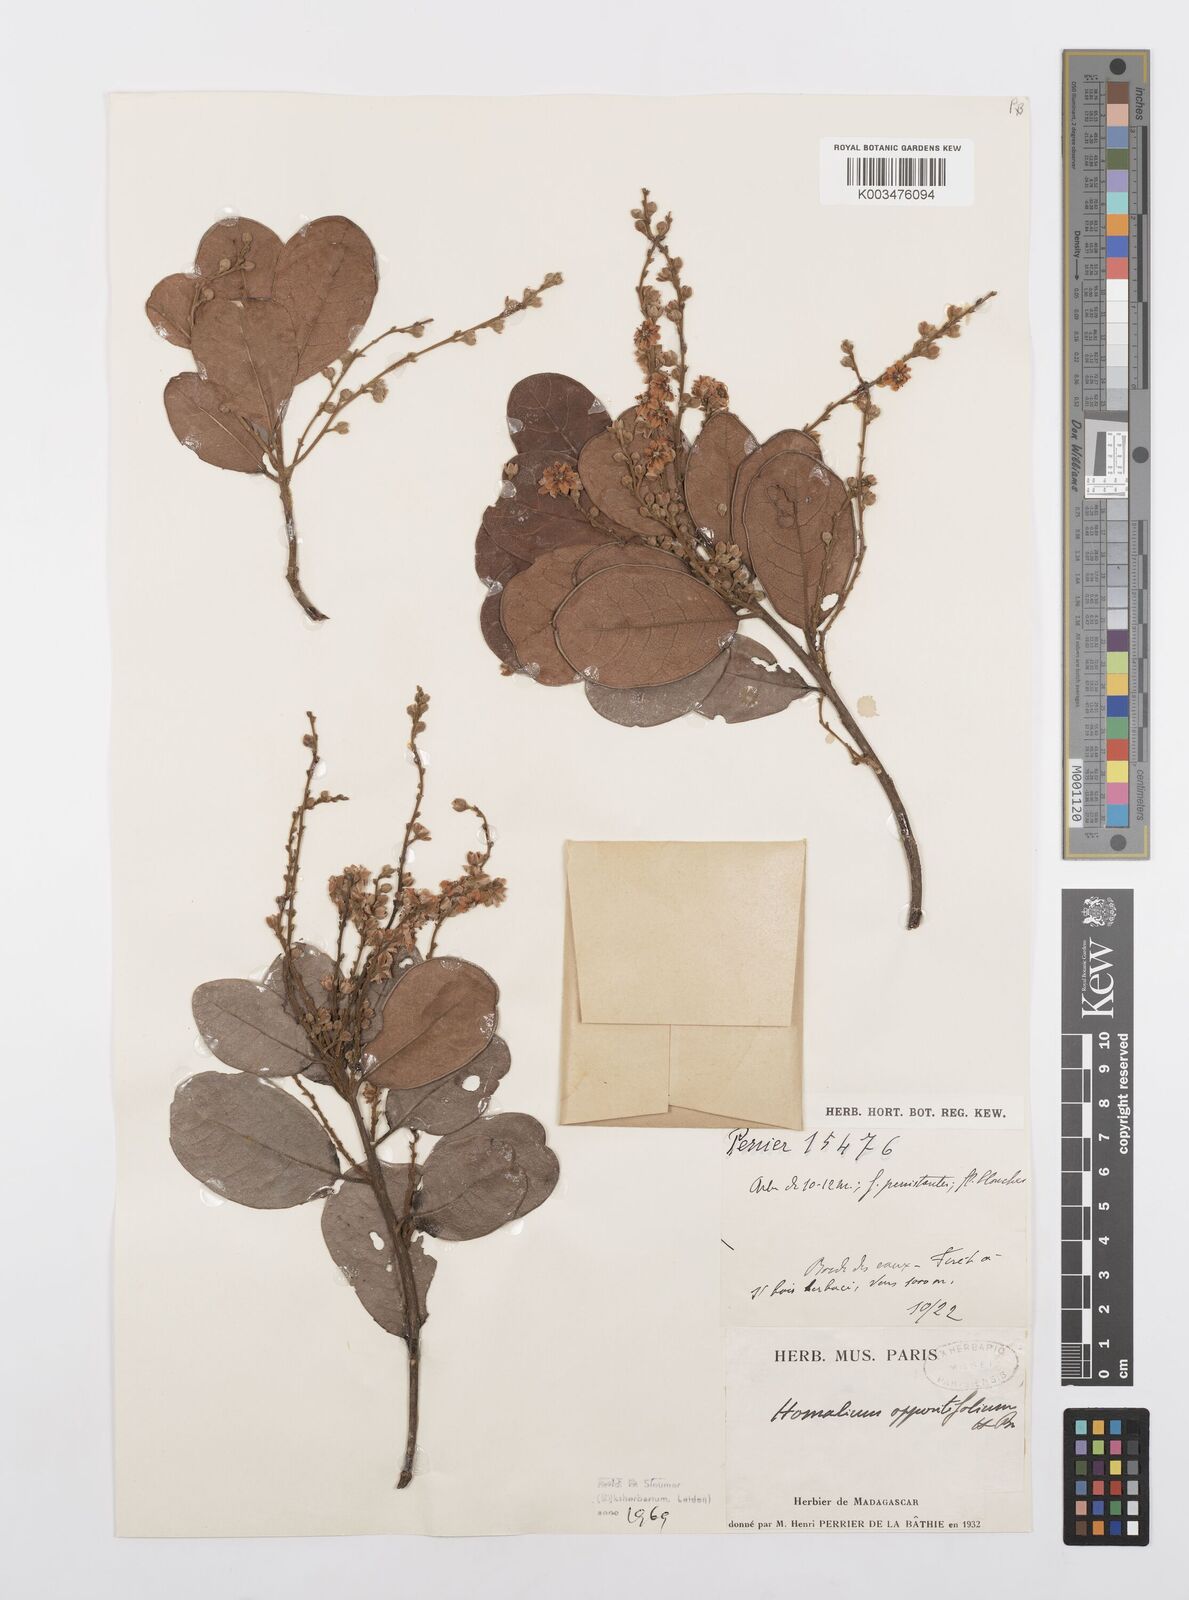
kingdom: Plantae
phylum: Tracheophyta
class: Magnoliopsida
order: Malpighiales
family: Salicaceae
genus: Homalium
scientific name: Homalium oppositifolium
